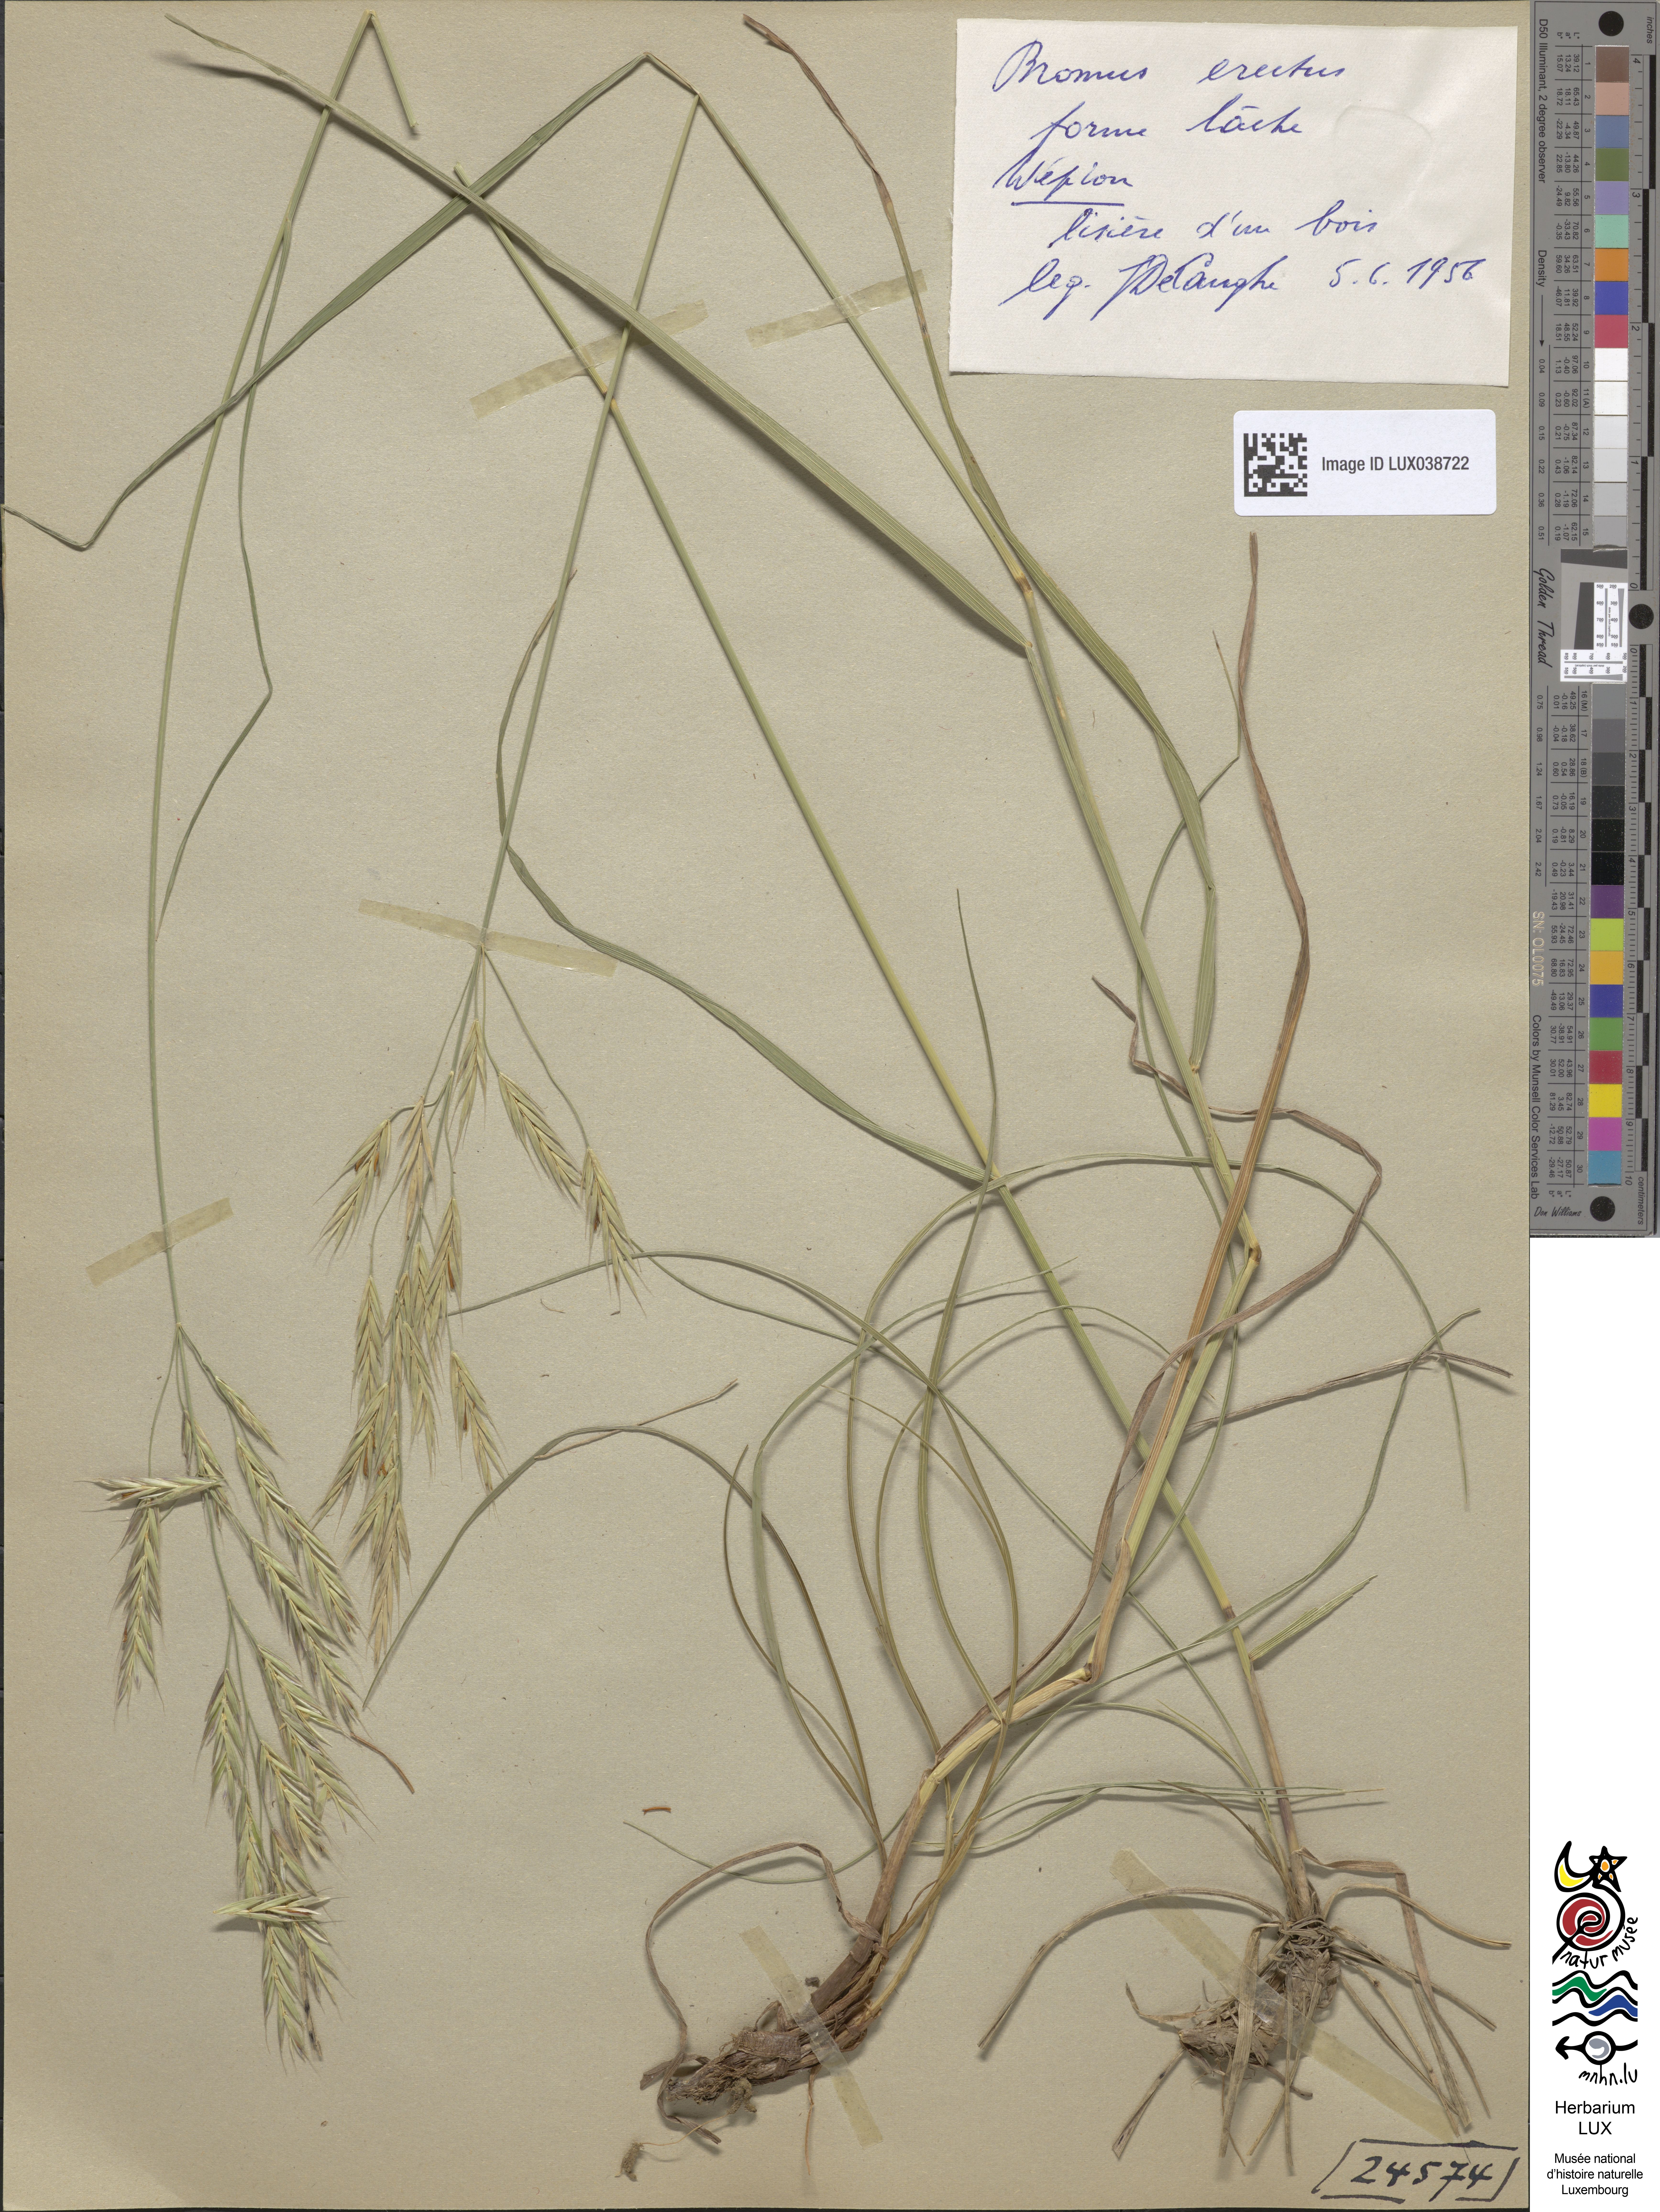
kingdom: Plantae
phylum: Tracheophyta
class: Liliopsida
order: Poales
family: Poaceae
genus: Bromus
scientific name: Bromus erectus
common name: Erect brome
